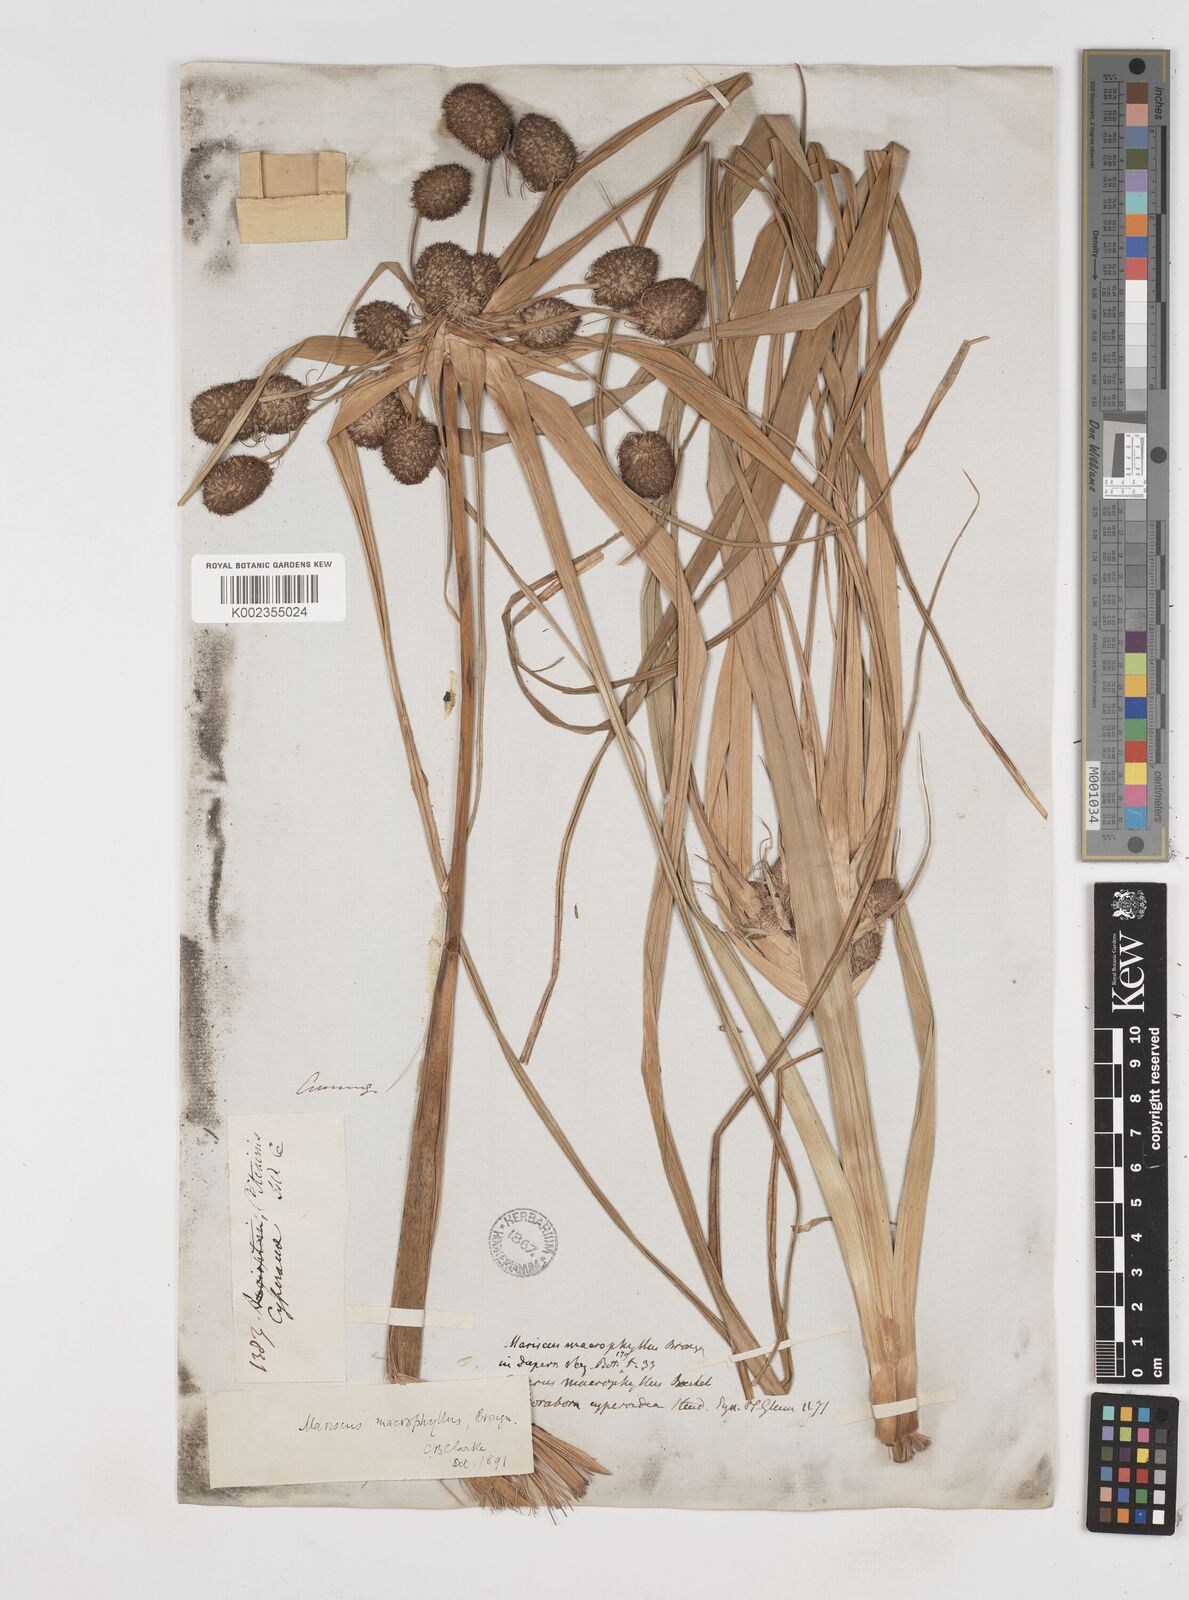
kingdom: Plantae
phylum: Tracheophyta
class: Liliopsida
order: Poales
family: Cyperaceae
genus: Cyperus
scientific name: Cyperus macrophyllus
